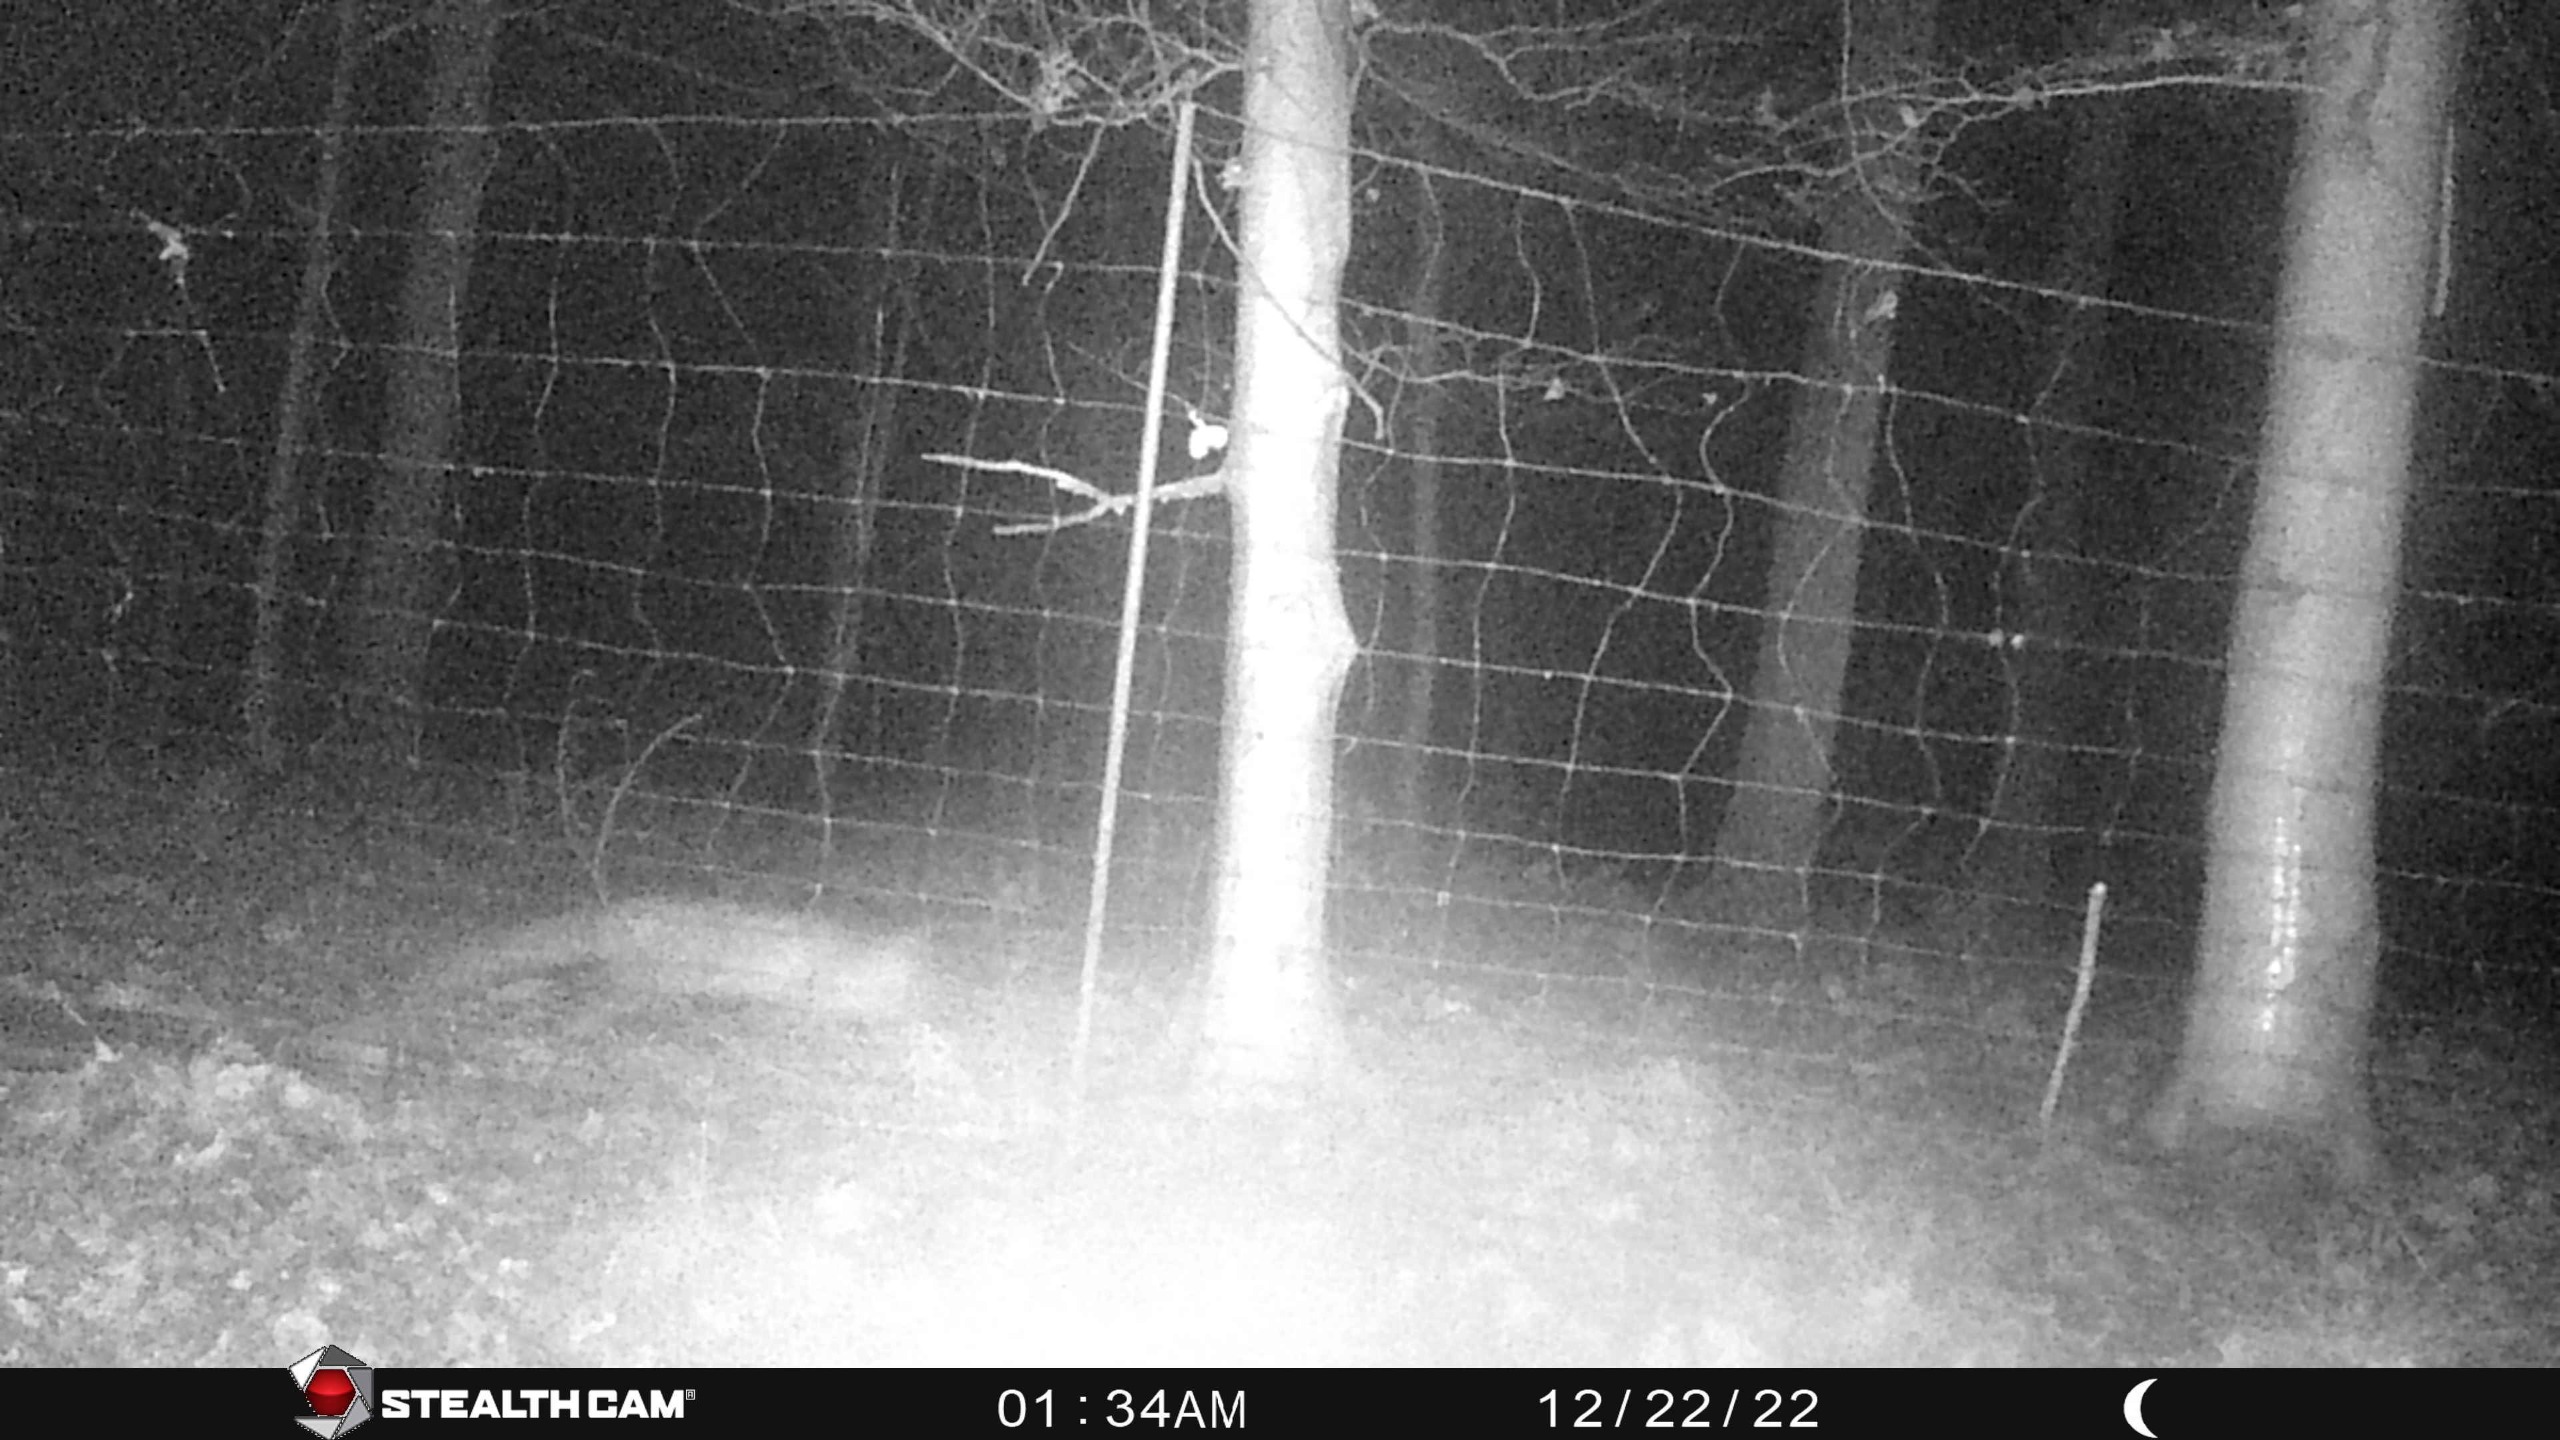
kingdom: Animalia
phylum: Chordata
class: Mammalia
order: Carnivora
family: Canidae
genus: Vulpes
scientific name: Vulpes vulpes
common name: Ræv
